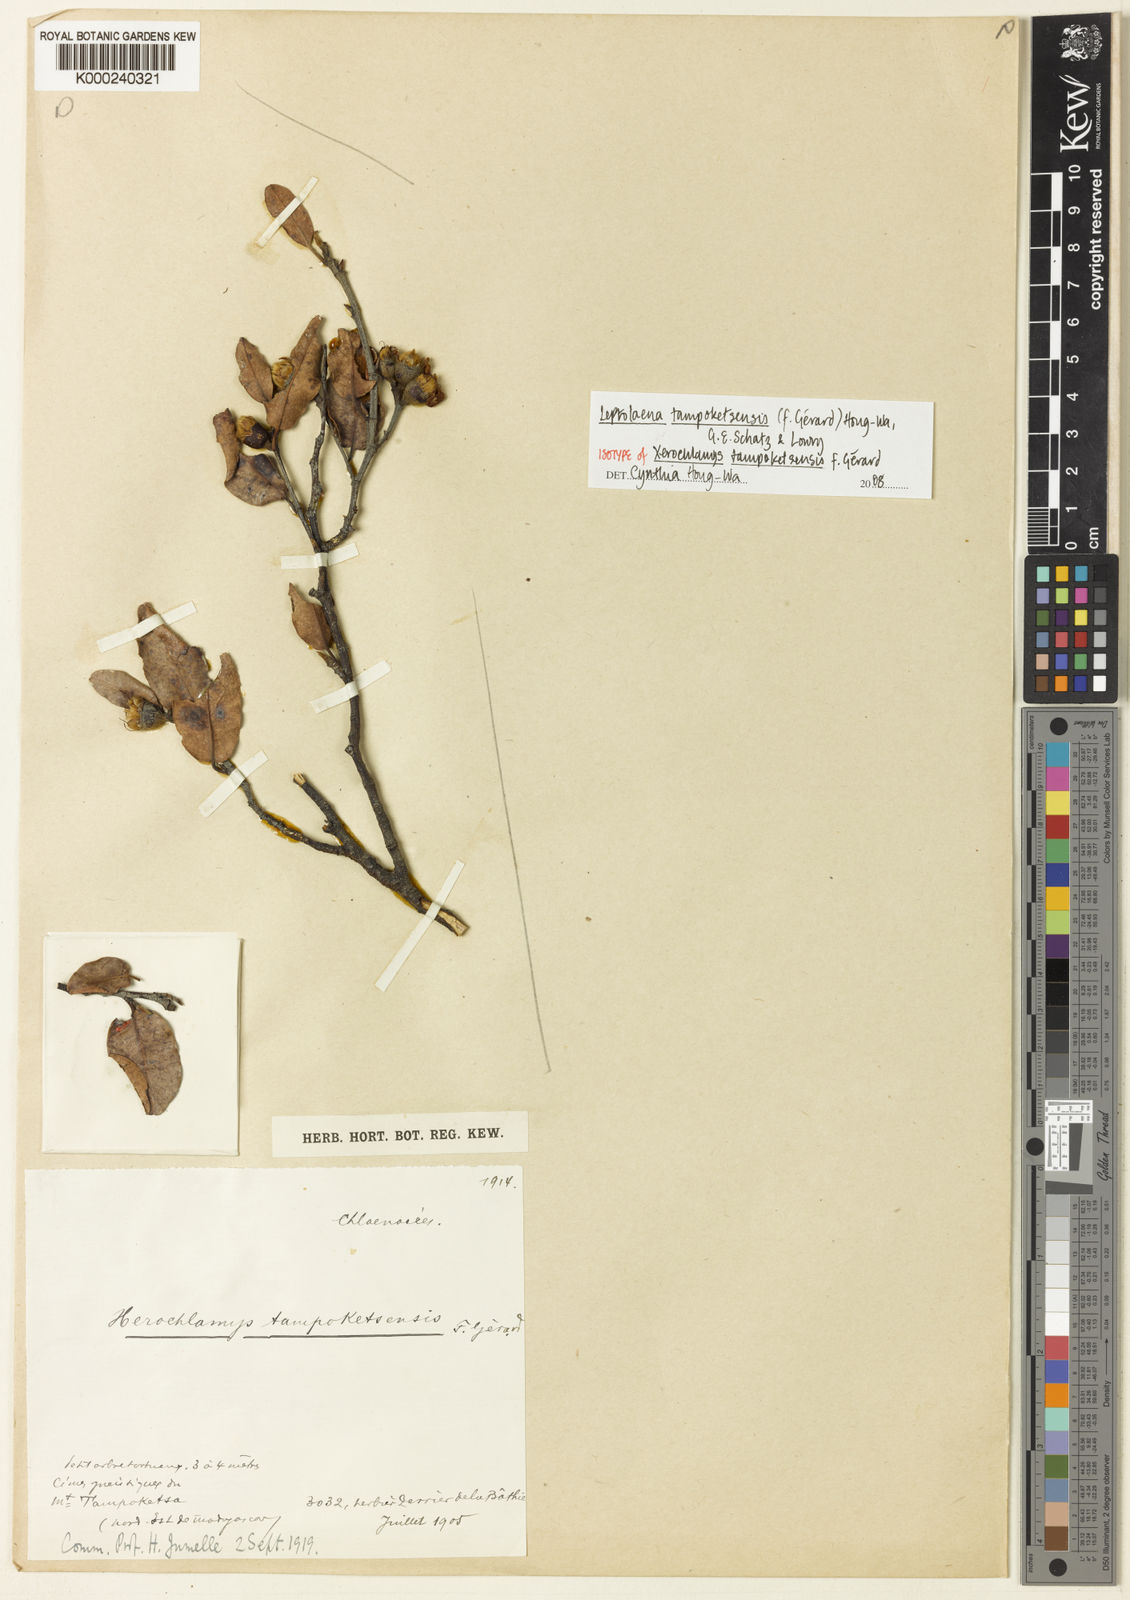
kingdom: Plantae
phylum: Tracheophyta
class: Magnoliopsida
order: Malvales
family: Sarcolaenaceae
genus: Leptolaena
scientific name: Leptolaena
